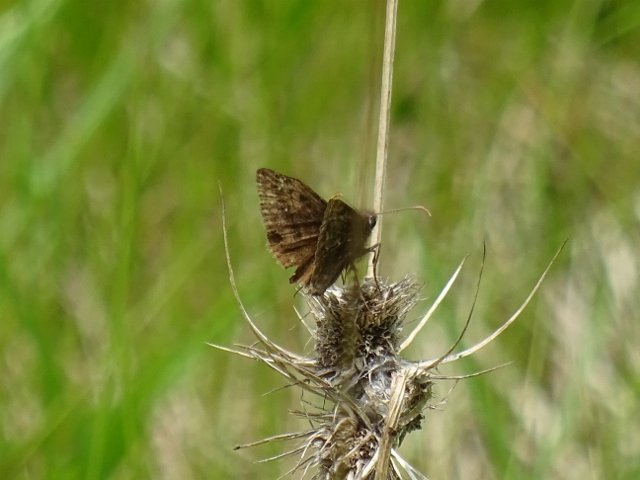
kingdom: Animalia
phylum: Arthropoda
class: Insecta
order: Lepidoptera
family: Hesperiidae
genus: Gesta
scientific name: Gesta
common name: Wild Indigo Duskywing
